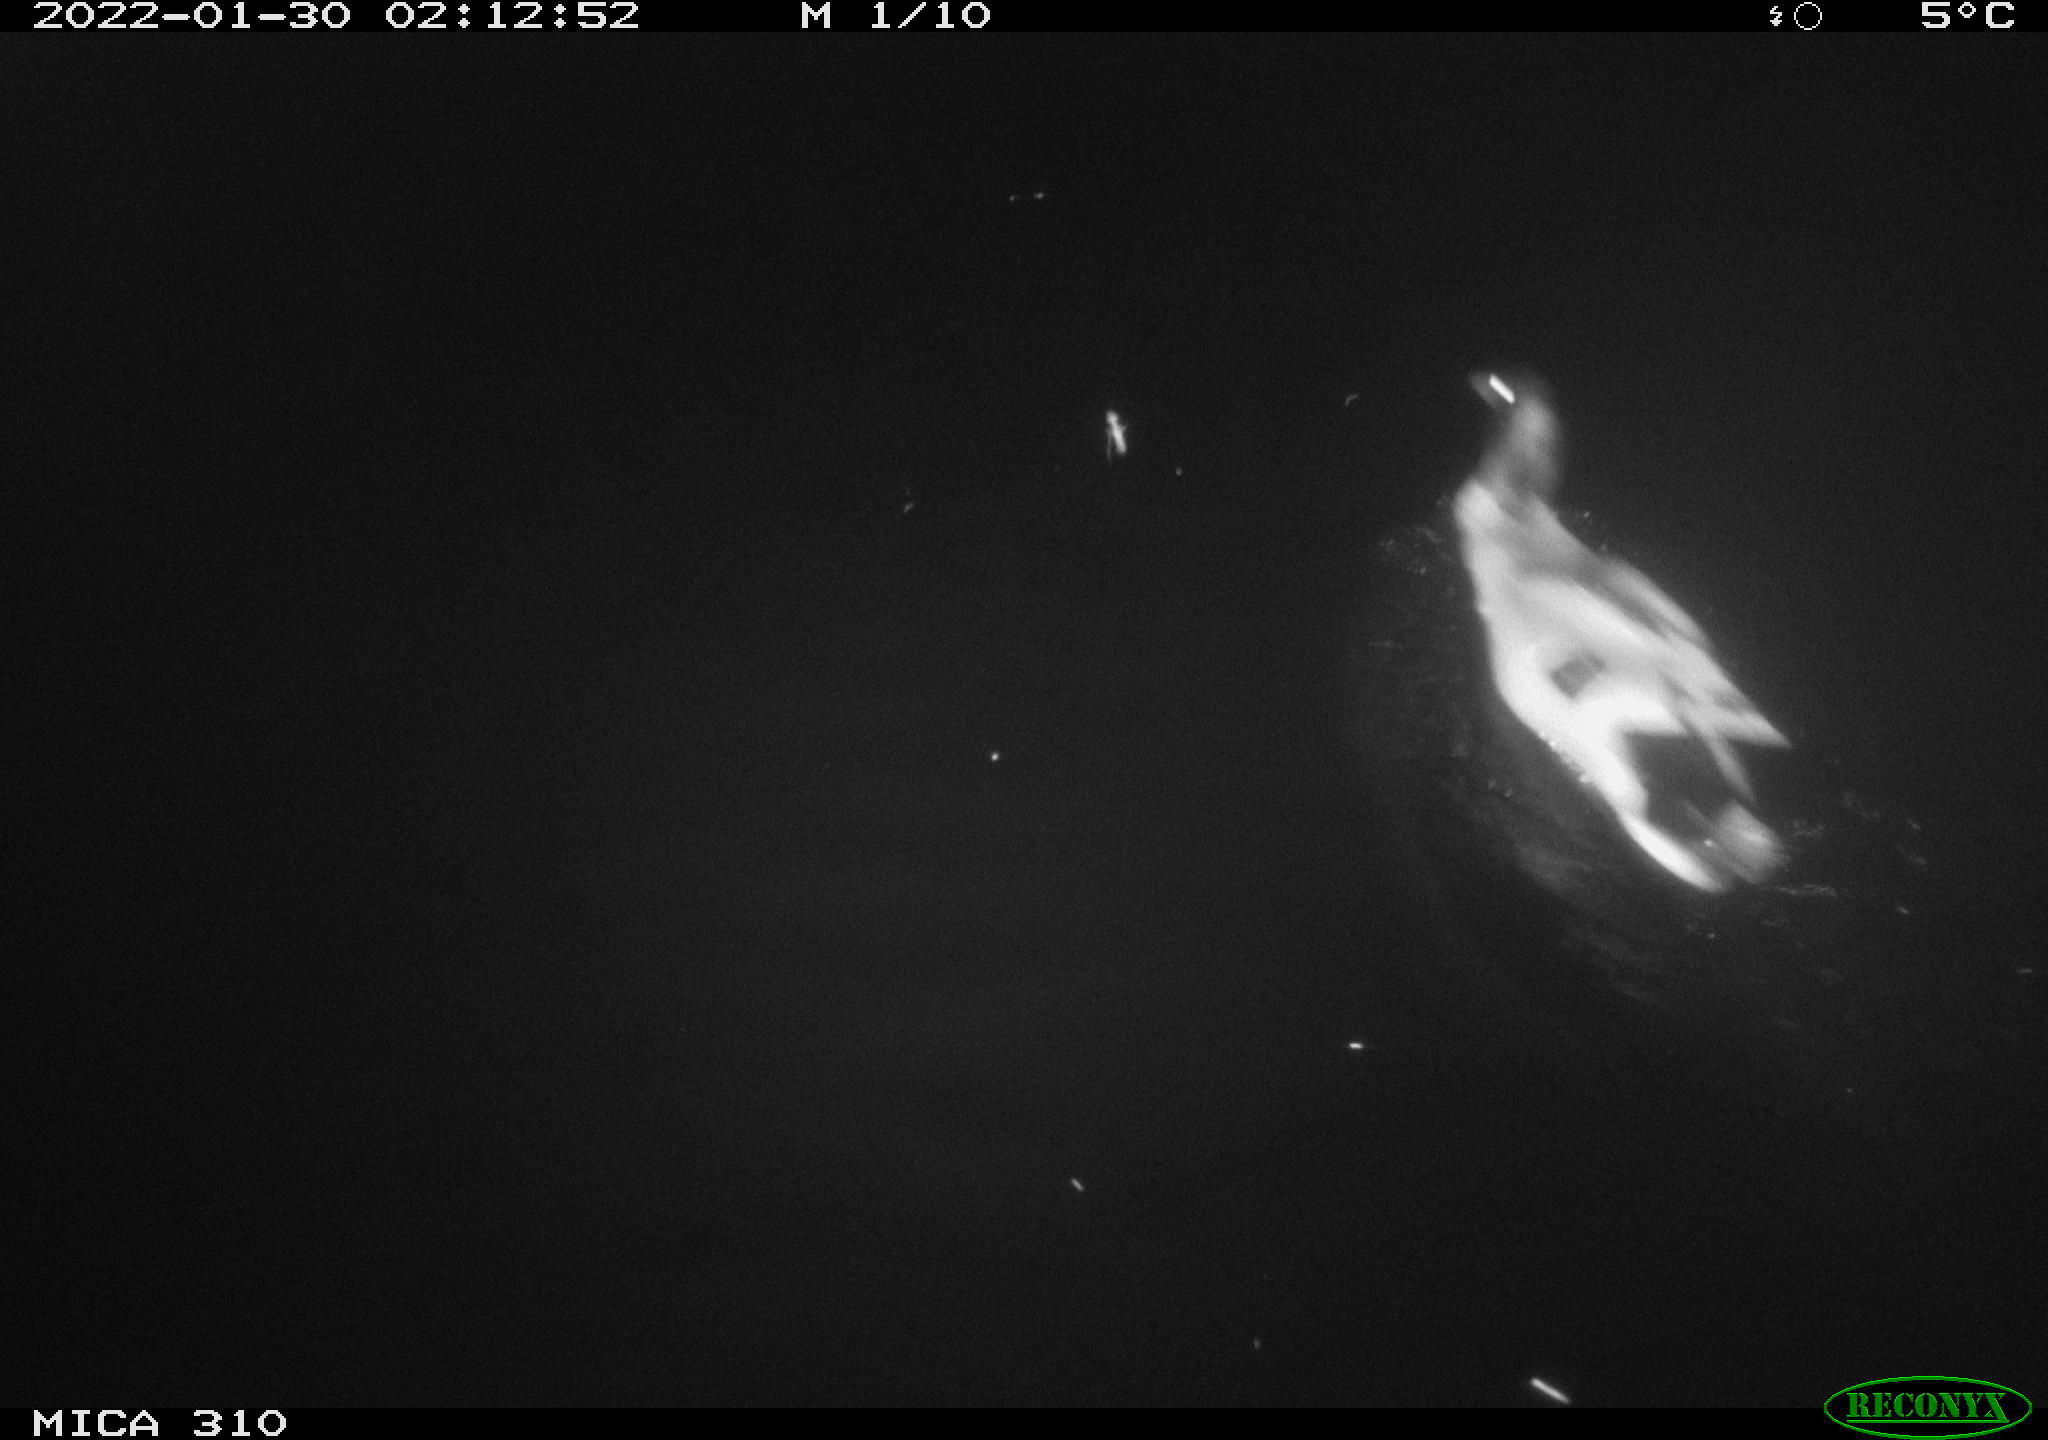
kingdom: Animalia
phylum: Chordata
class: Aves
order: Anseriformes
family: Anatidae
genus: Anas
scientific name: Anas
